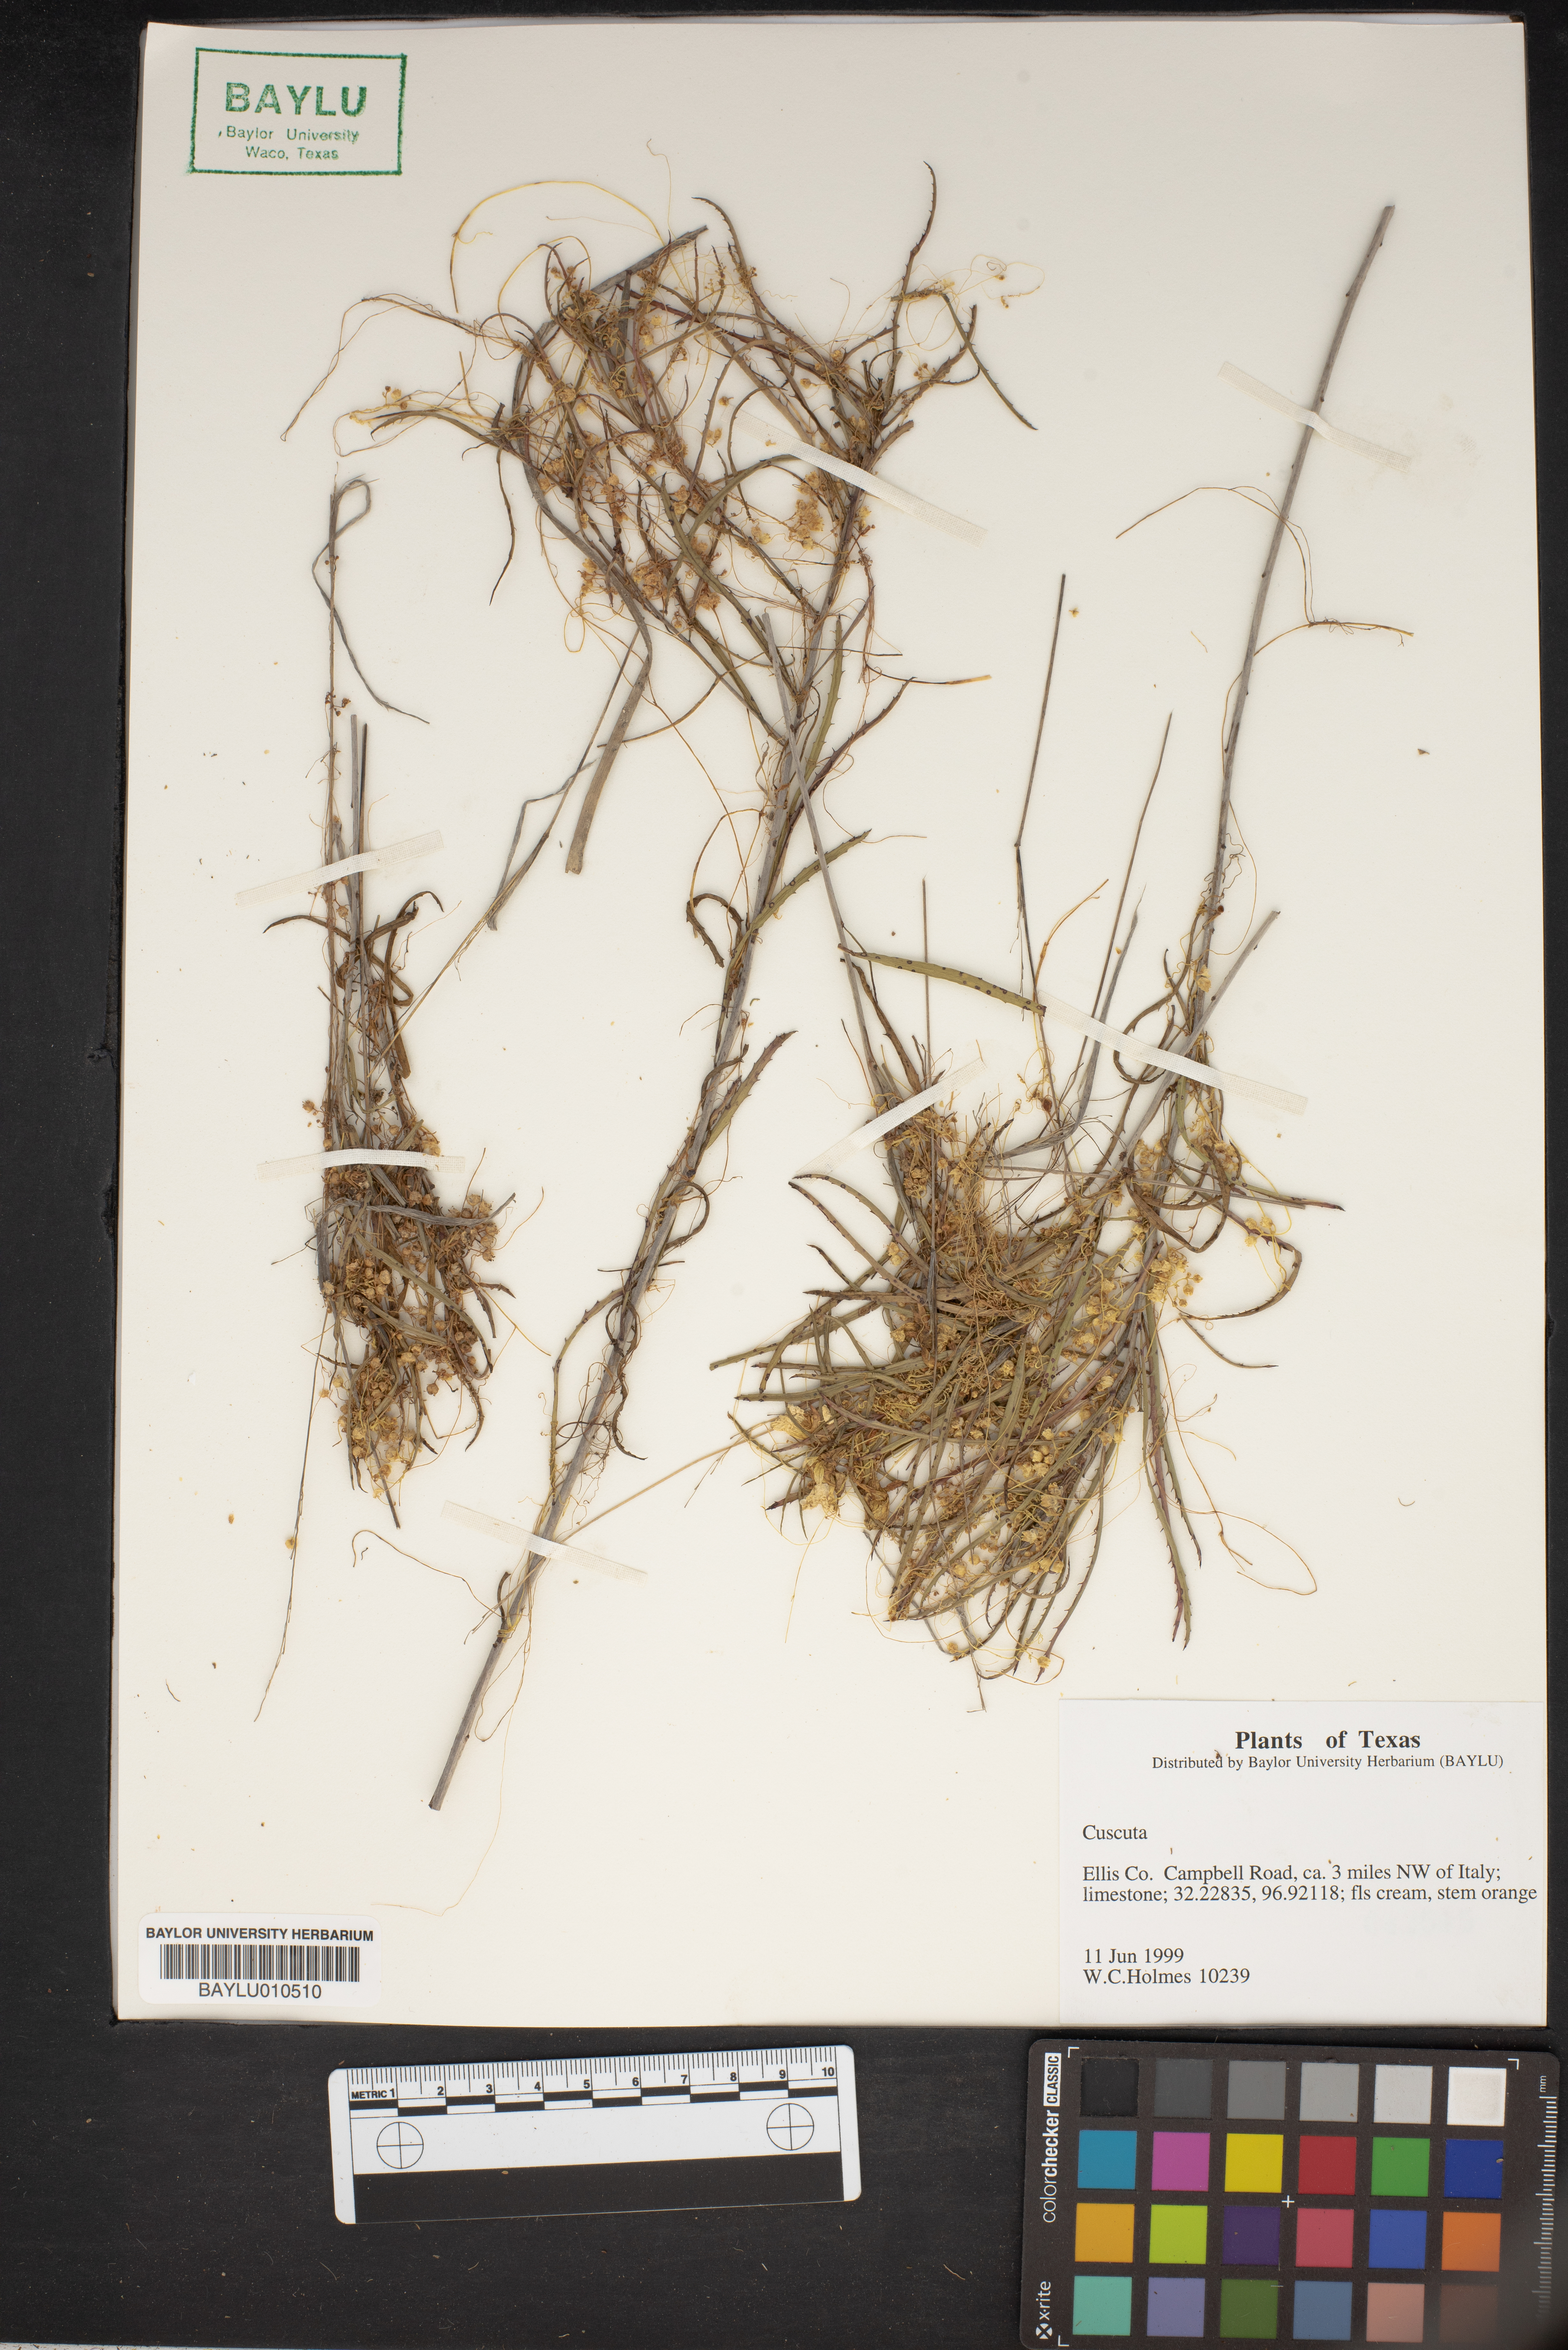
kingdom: Plantae
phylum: Tracheophyta
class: Magnoliopsida
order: Solanales
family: Convolvulaceae
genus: Cuscuta
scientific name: Cuscuta
